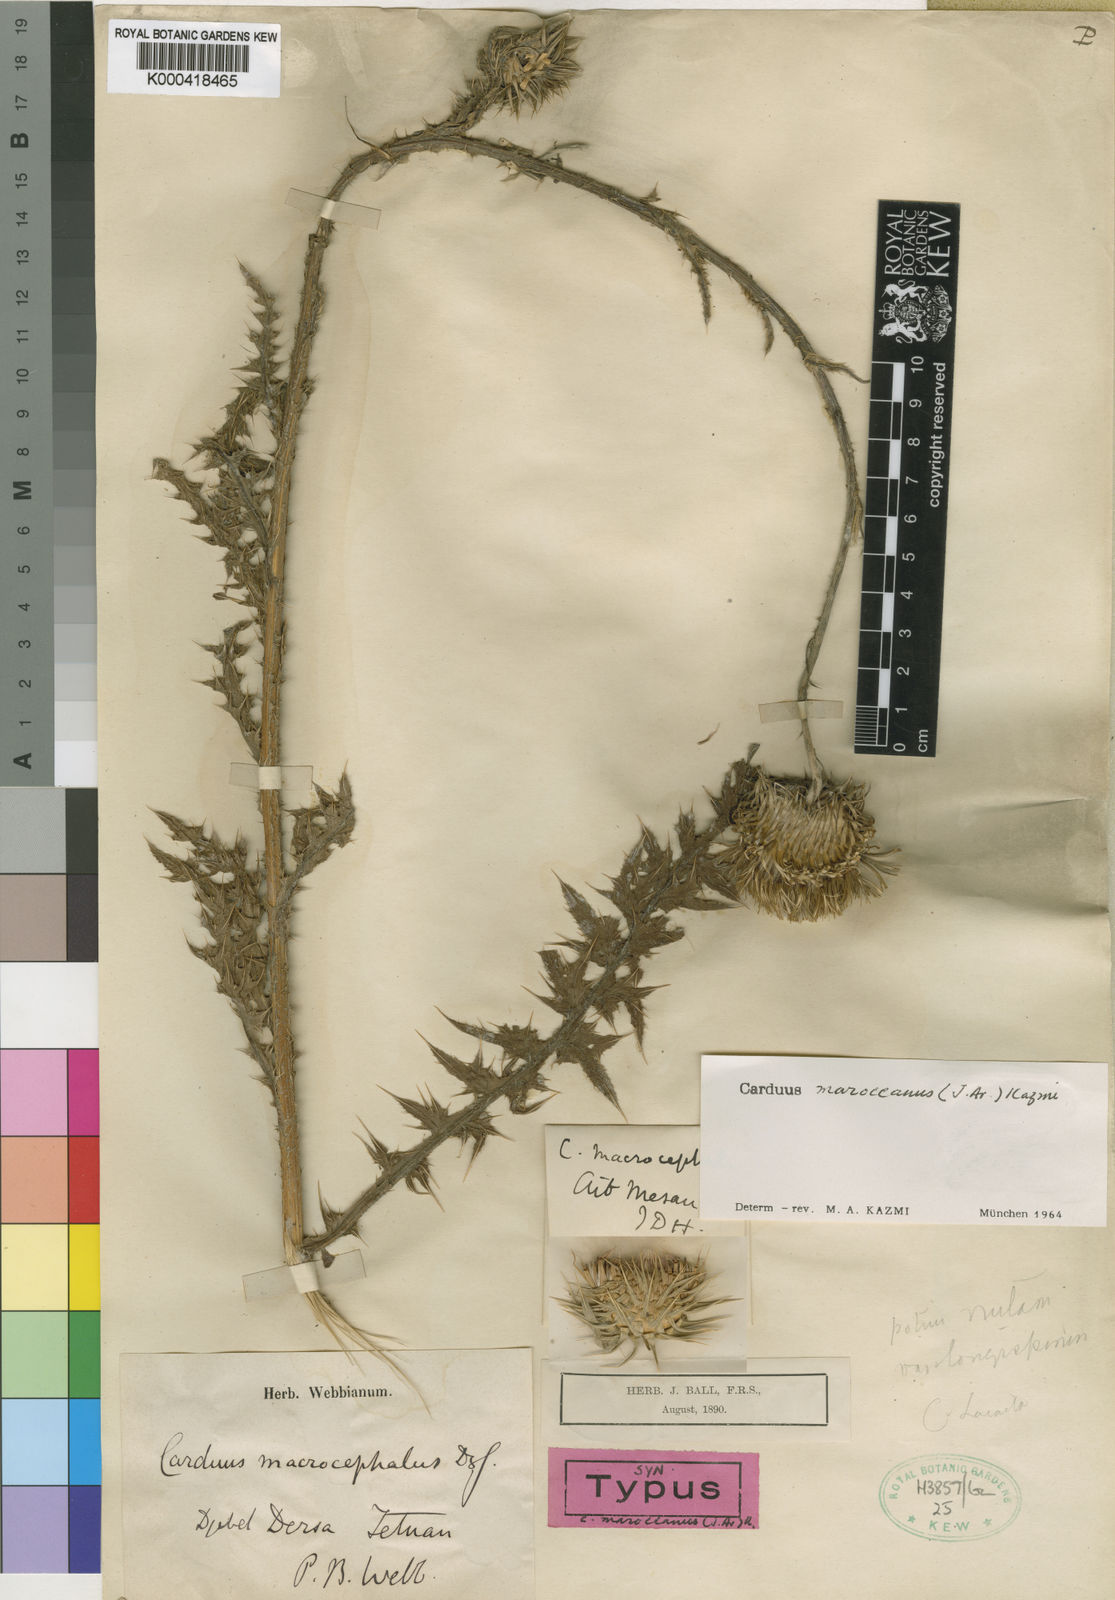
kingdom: Plantae
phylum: Tracheophyta
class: Magnoliopsida
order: Asterales
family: Asteraceae
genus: Carduus
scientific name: Carduus maroccanus
